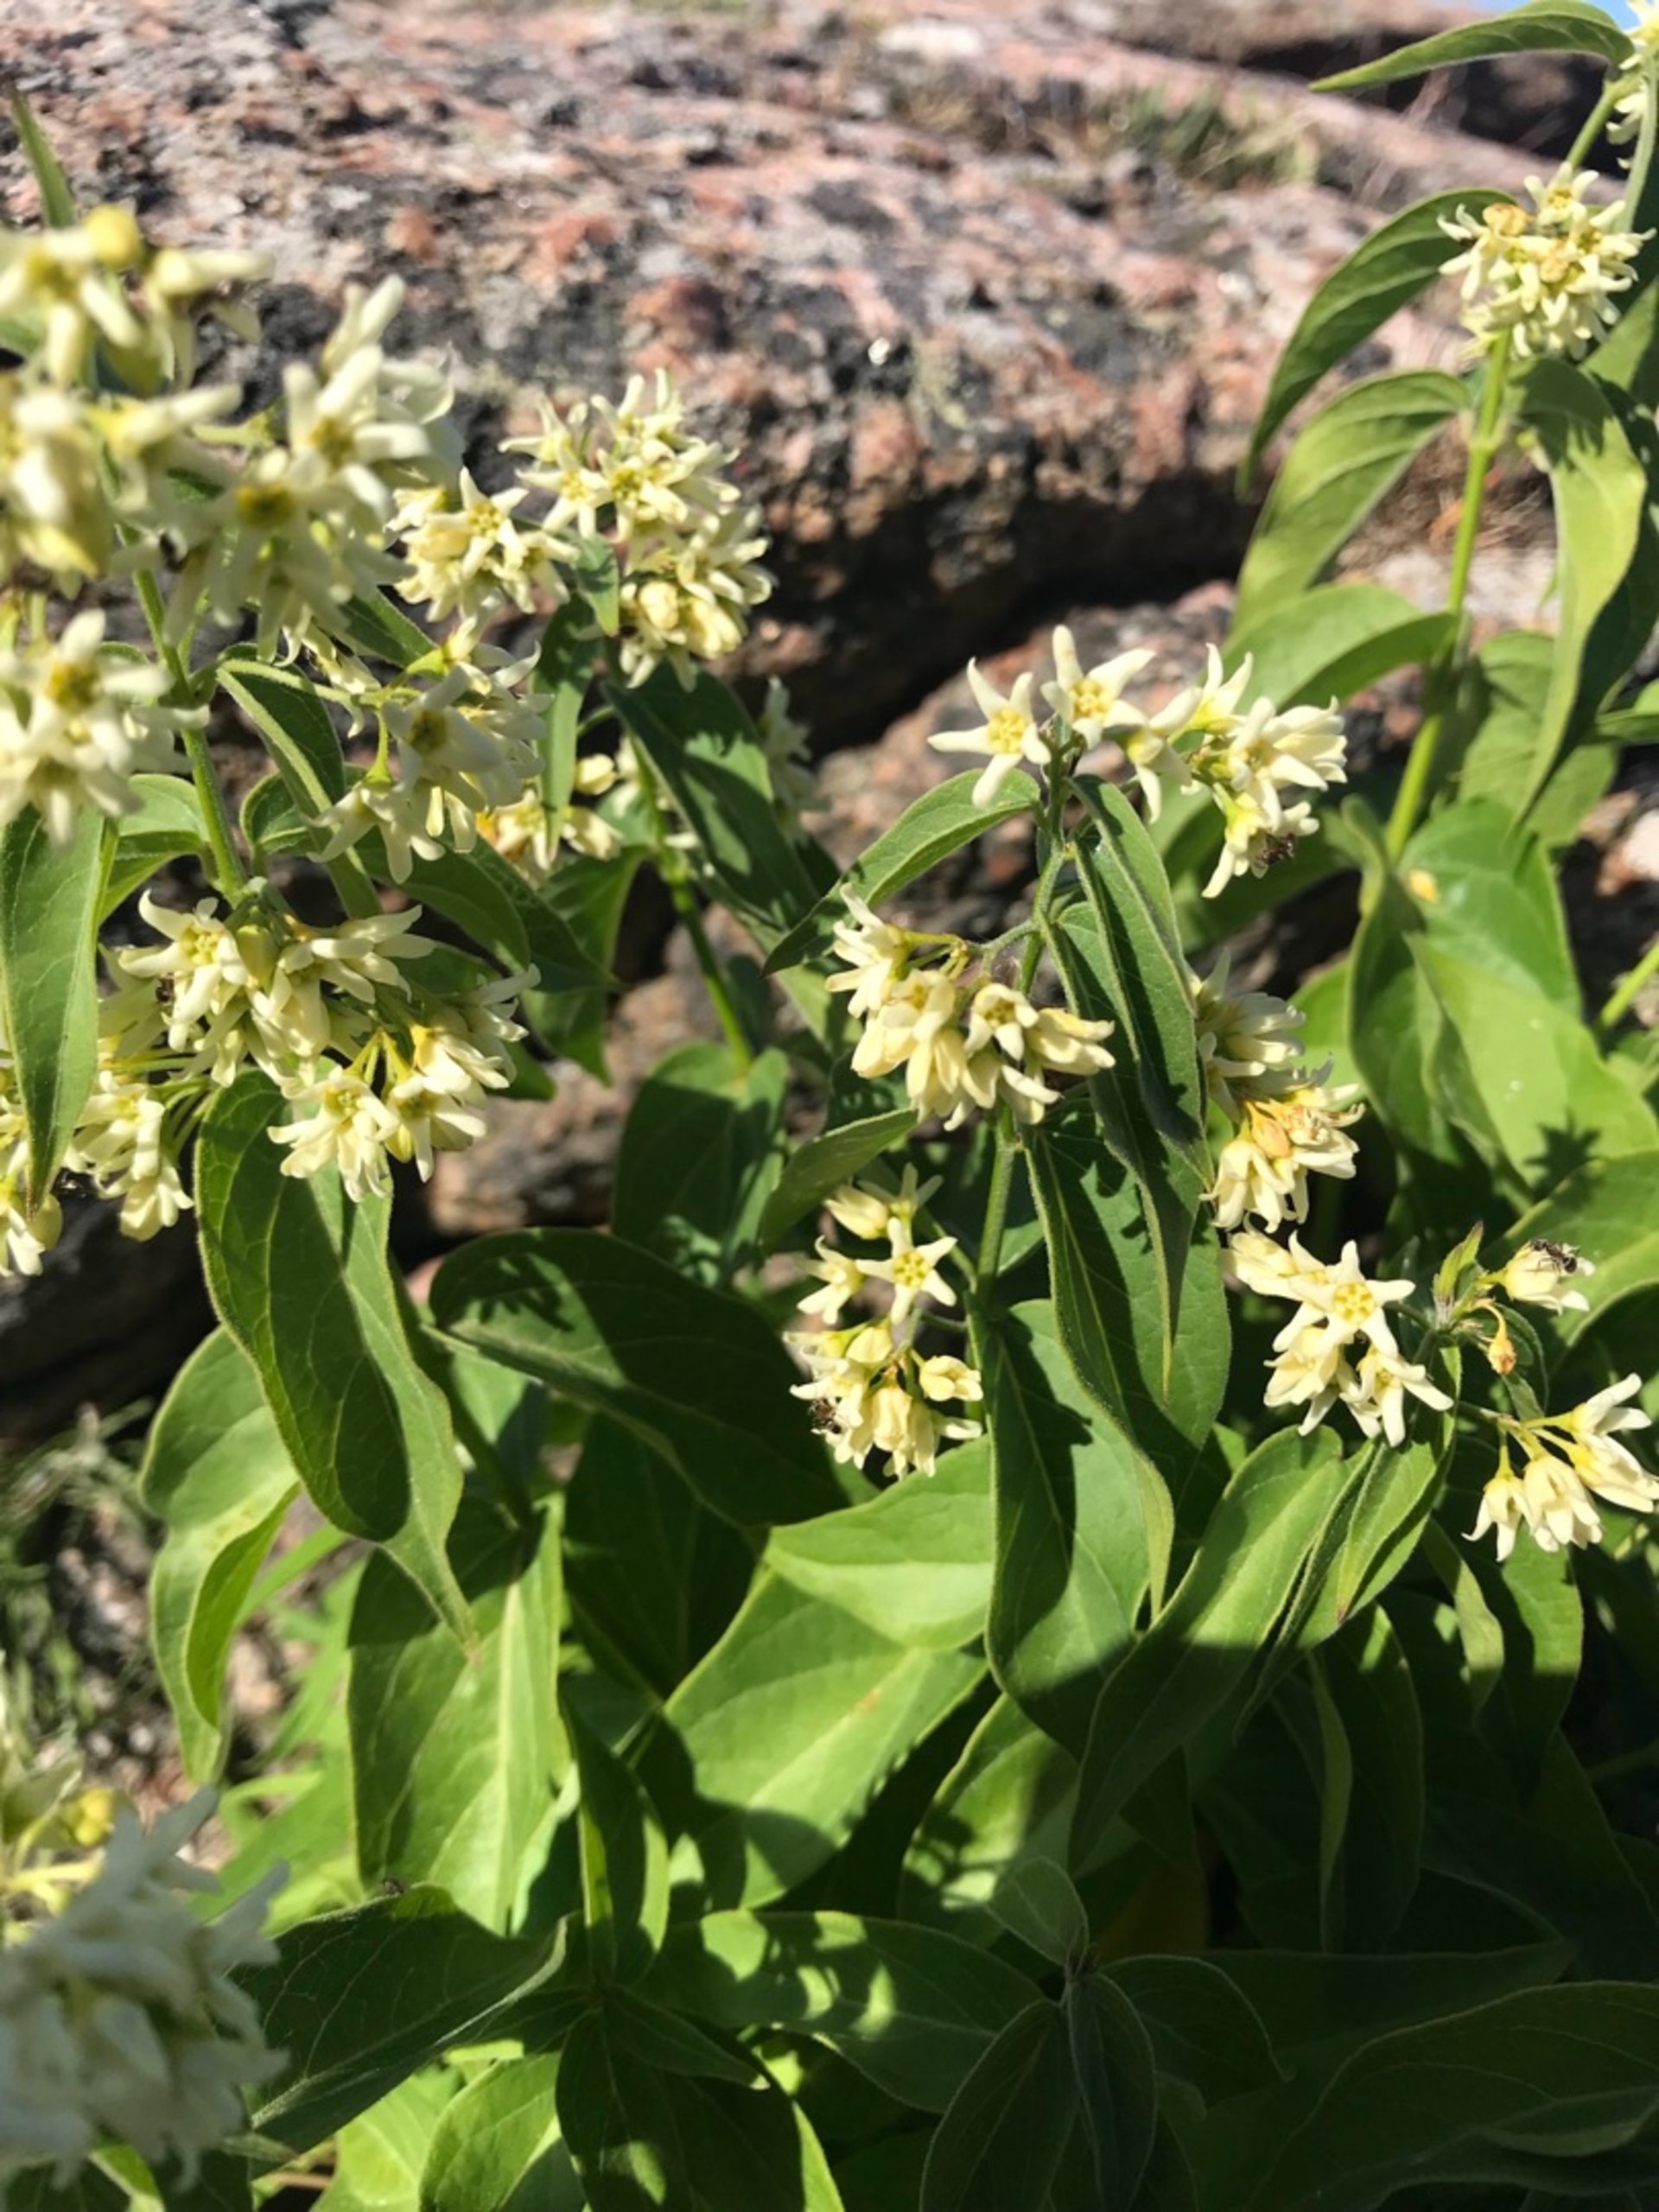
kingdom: Plantae
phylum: Tracheophyta
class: Magnoliopsida
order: Gentianales
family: Apocynaceae
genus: Vincetoxicum
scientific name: Vincetoxicum hirundinaria
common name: Svalerod
